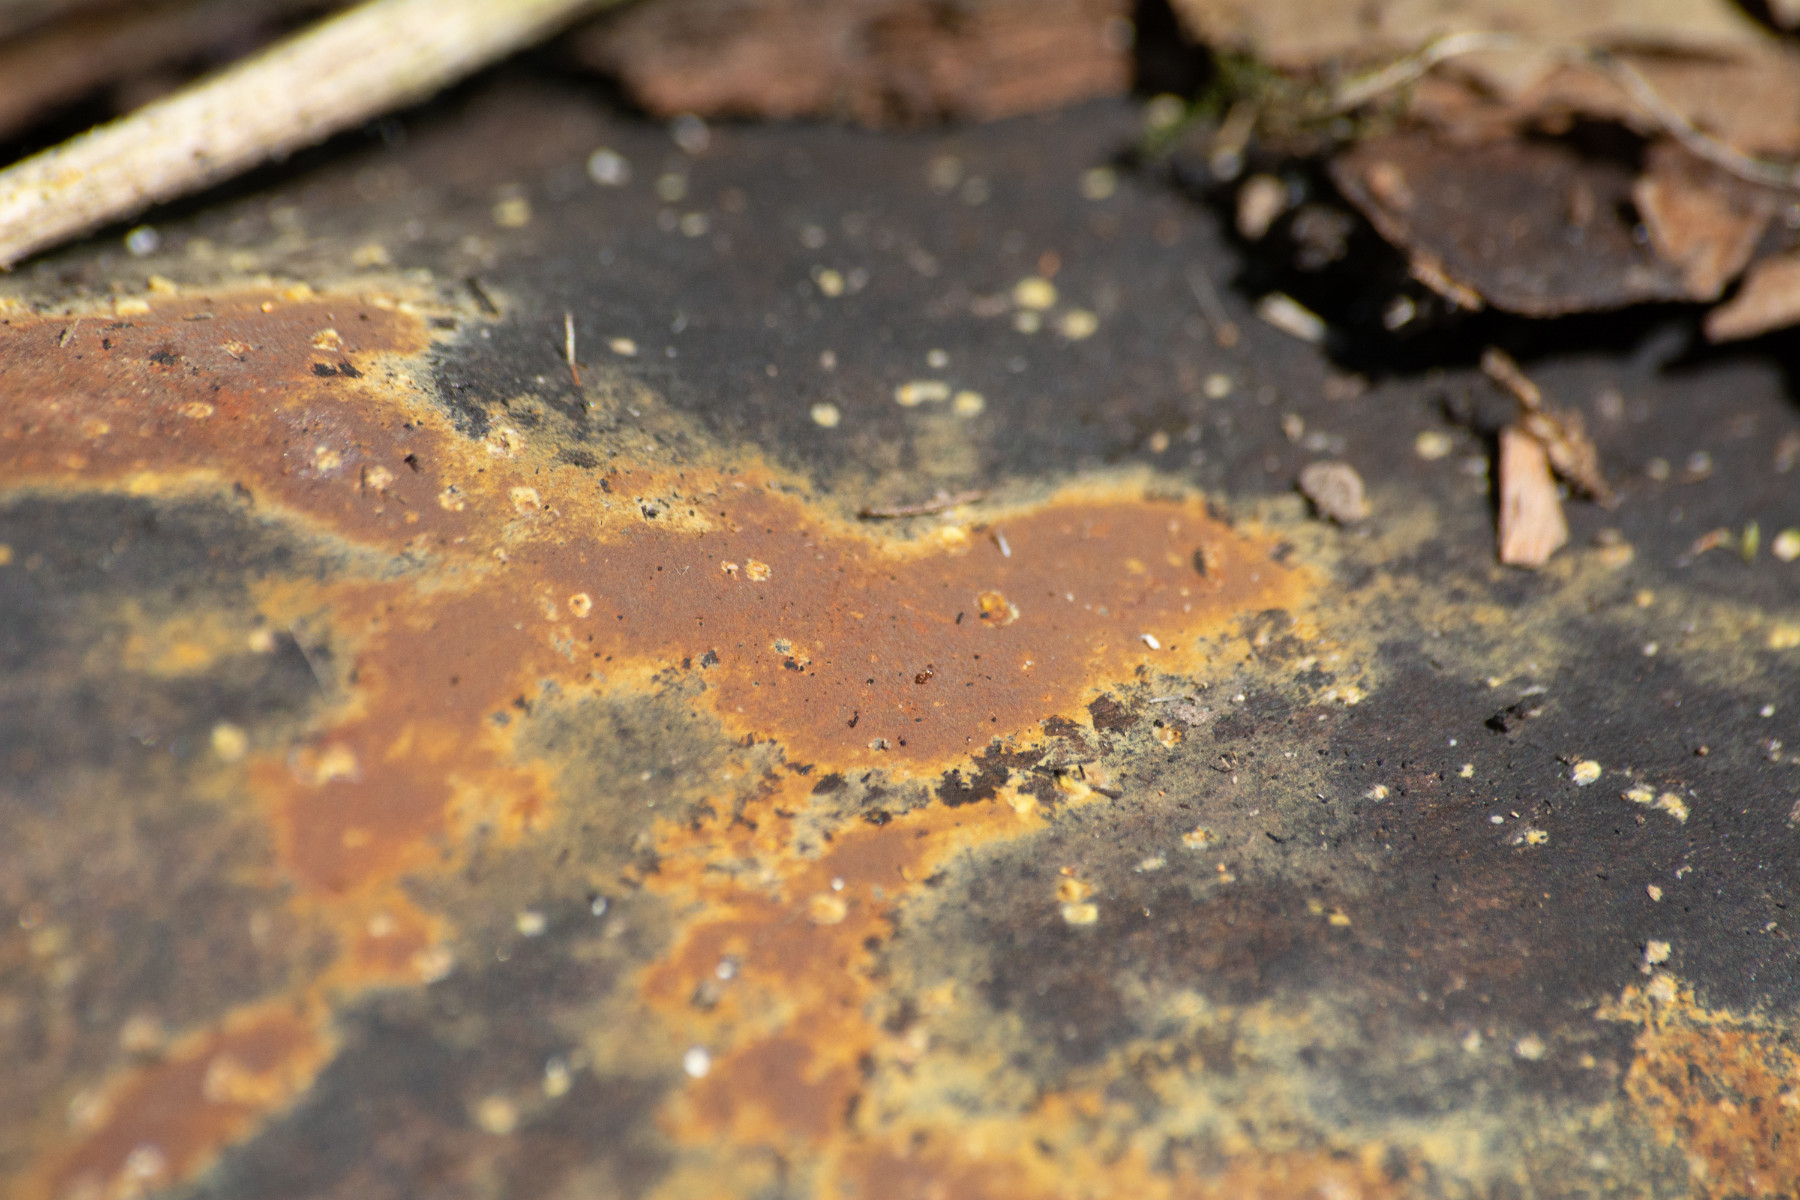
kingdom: Fungi
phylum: Ascomycota
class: Sordariomycetes
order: Xylariales
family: Hypoxylaceae
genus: Hypoxylon
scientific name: Hypoxylon
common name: kulbær
